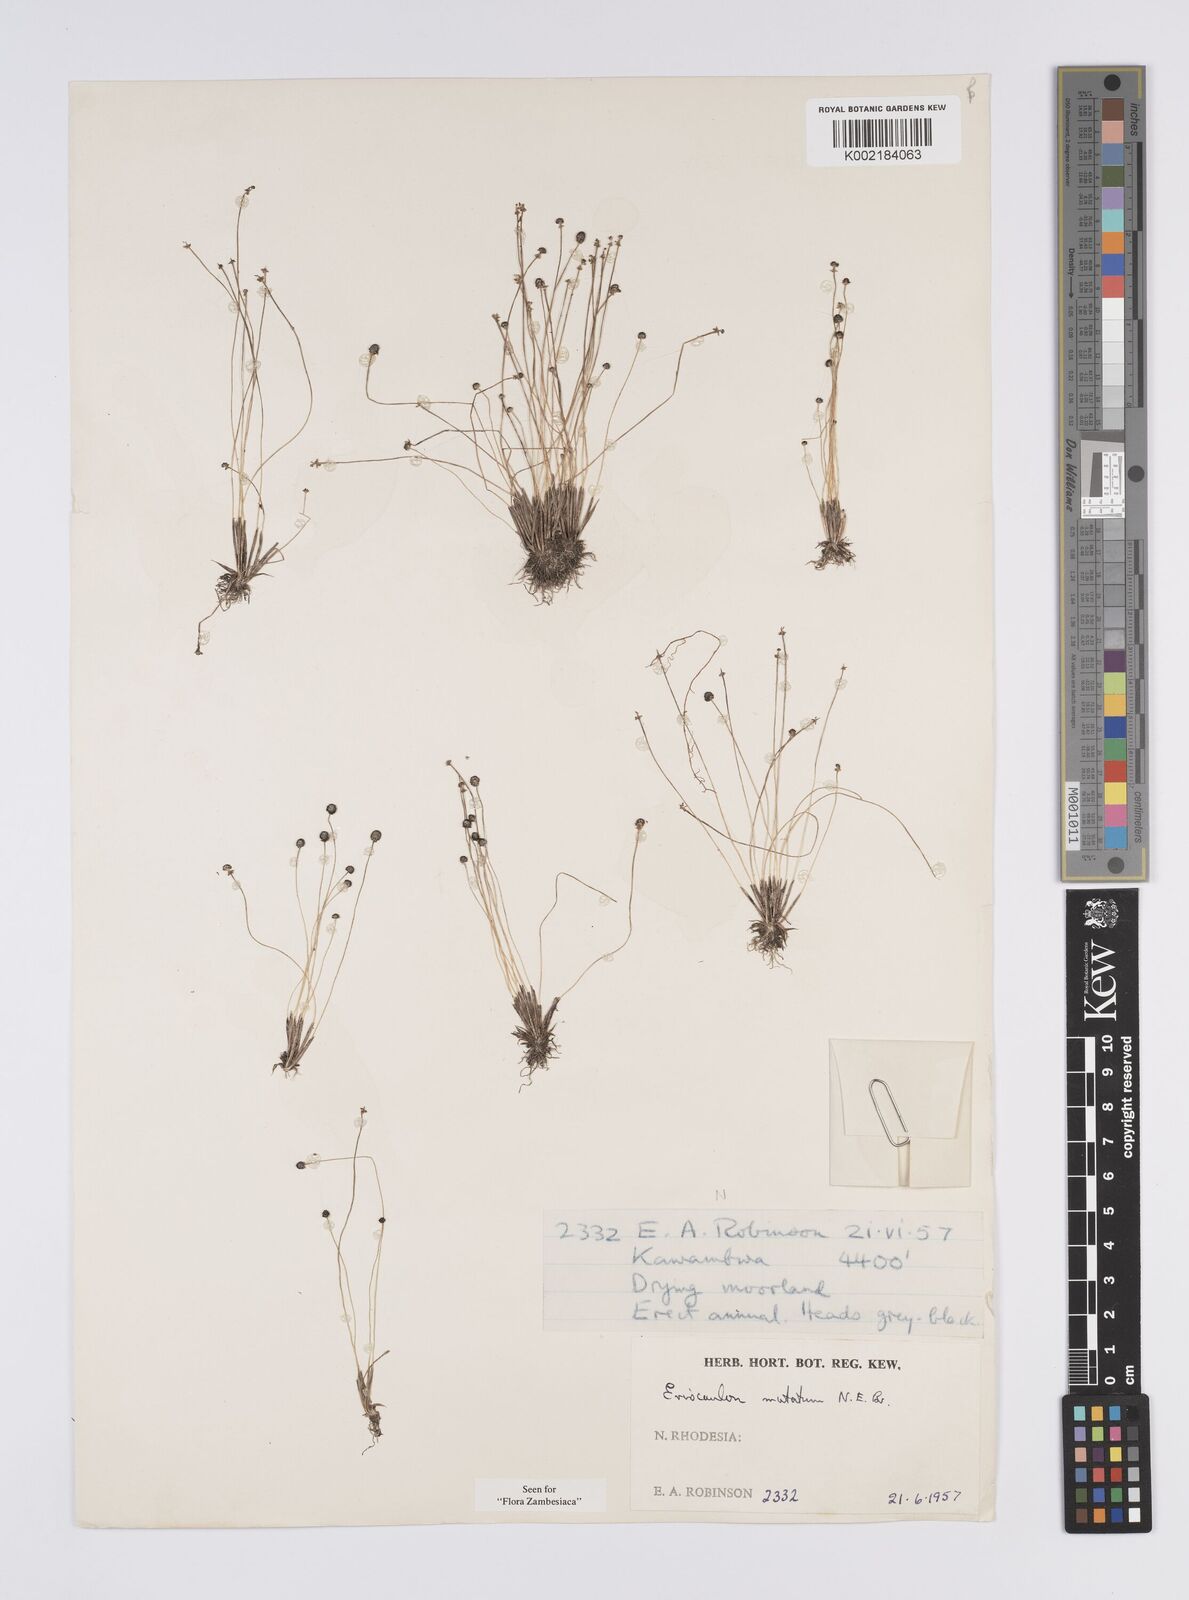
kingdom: Plantae
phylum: Tracheophyta
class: Liliopsida
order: Poales
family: Eriocaulaceae
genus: Eriocaulon
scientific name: Eriocaulon mutatum
